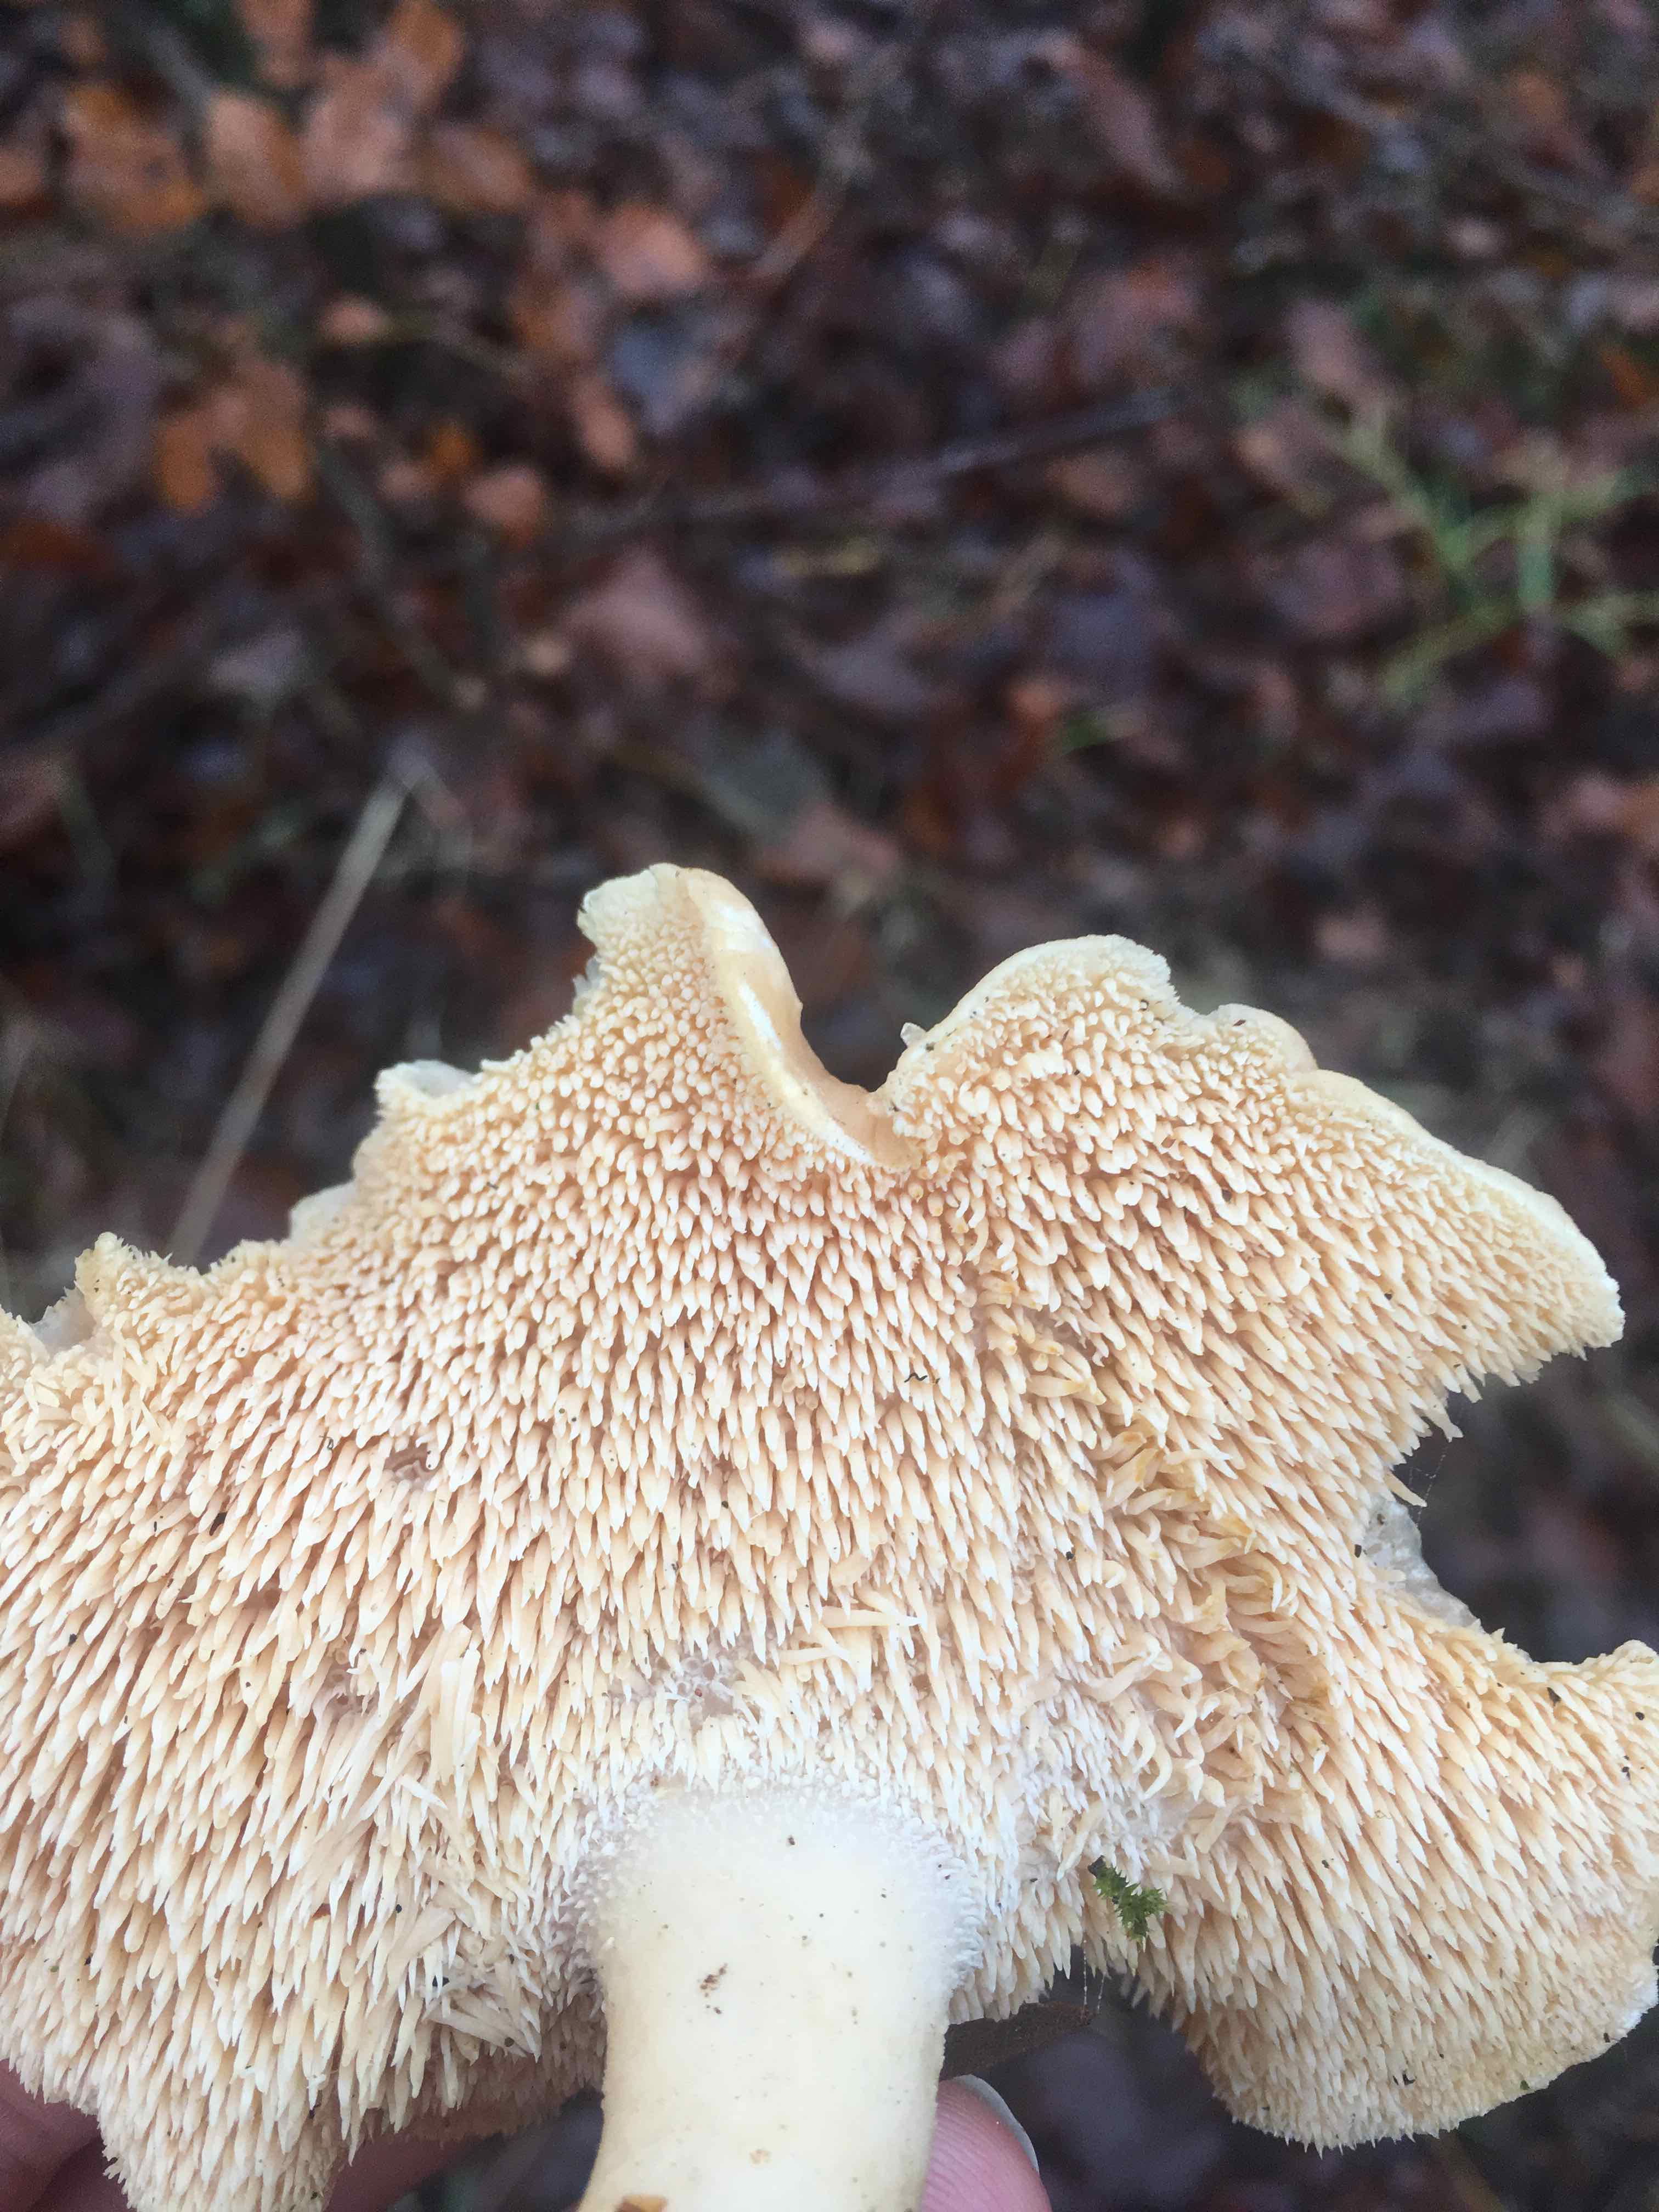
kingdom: Fungi
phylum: Basidiomycota
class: Agaricomycetes
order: Cantharellales
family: Hydnaceae
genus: Hydnum
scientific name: Hydnum
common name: pigsvamp
